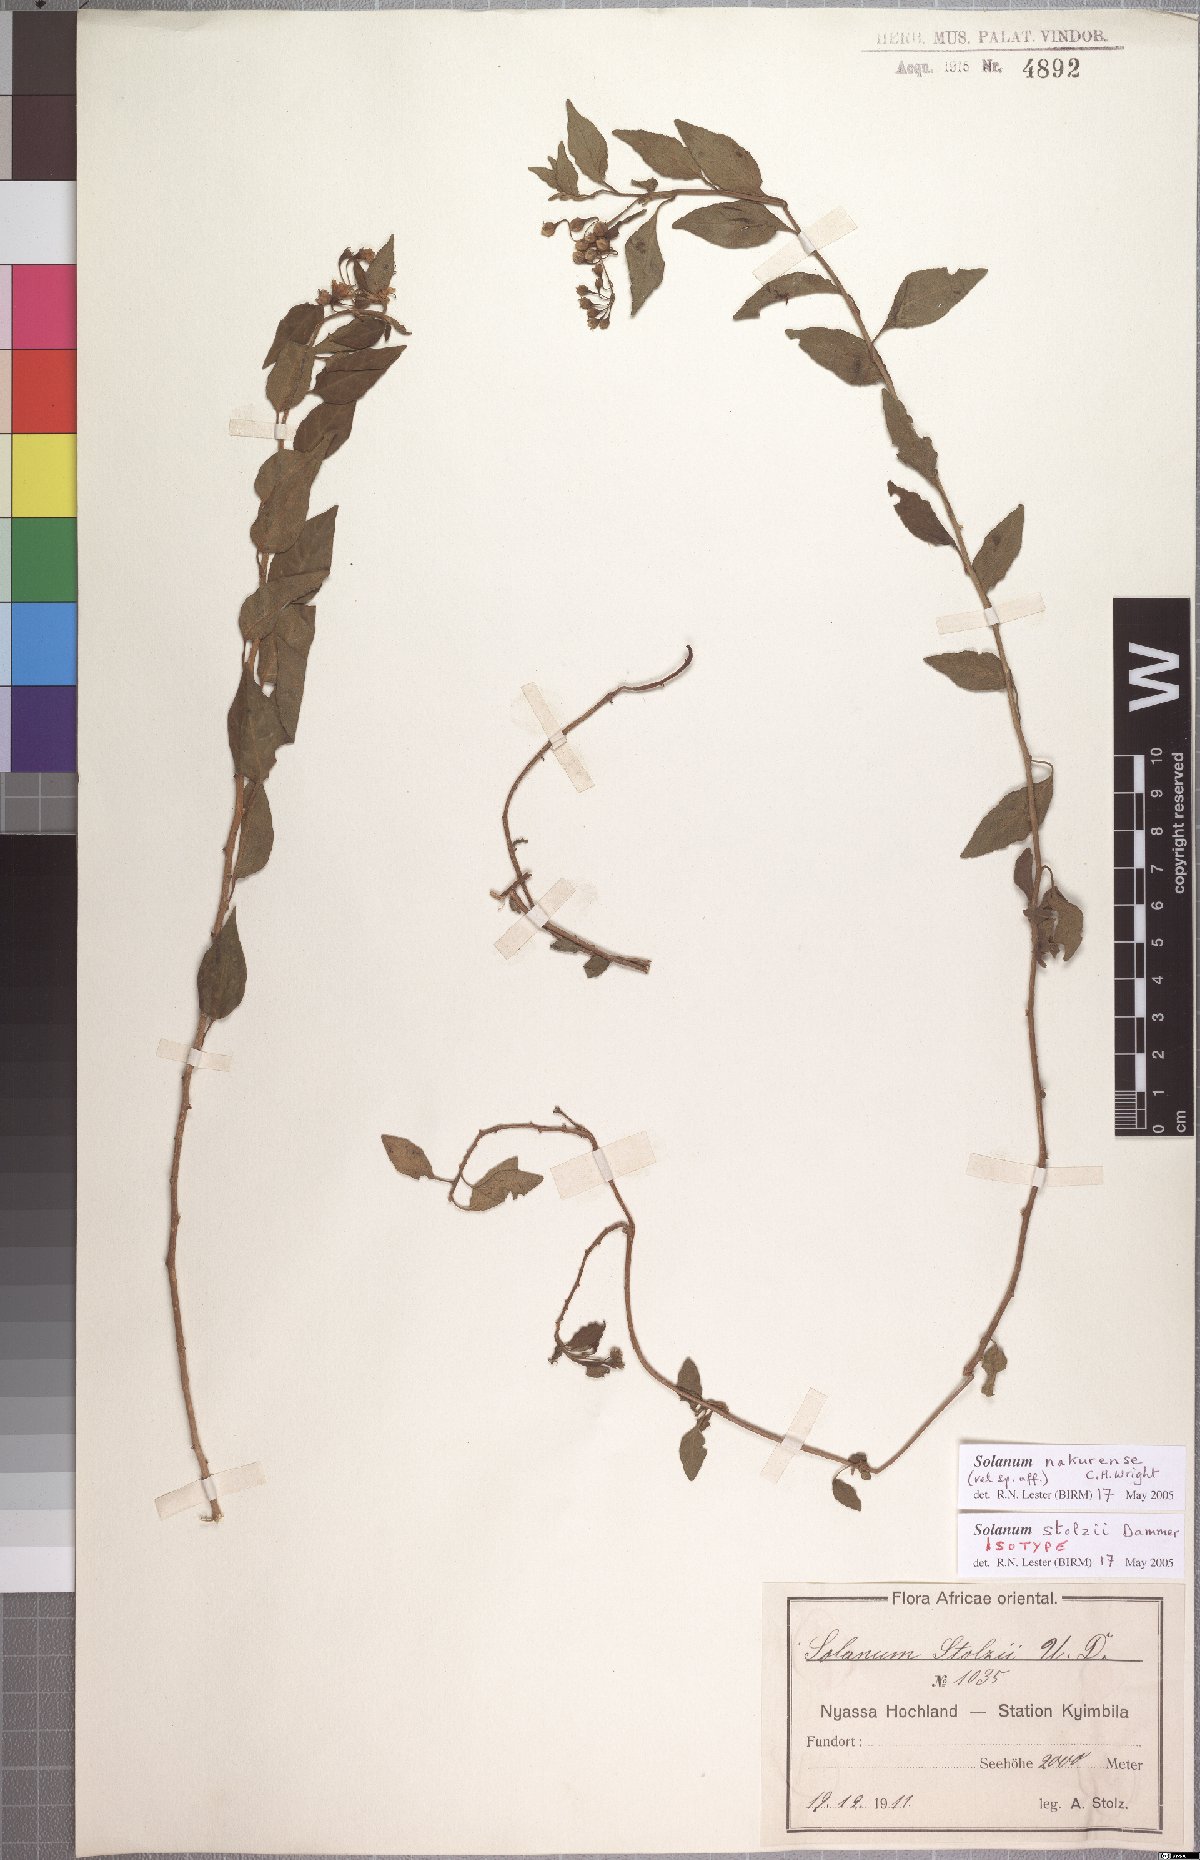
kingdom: Plantae
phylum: Tracheophyta
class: Magnoliopsida
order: Solanales
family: Solanaceae
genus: Solanum
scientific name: Solanum nakurense
